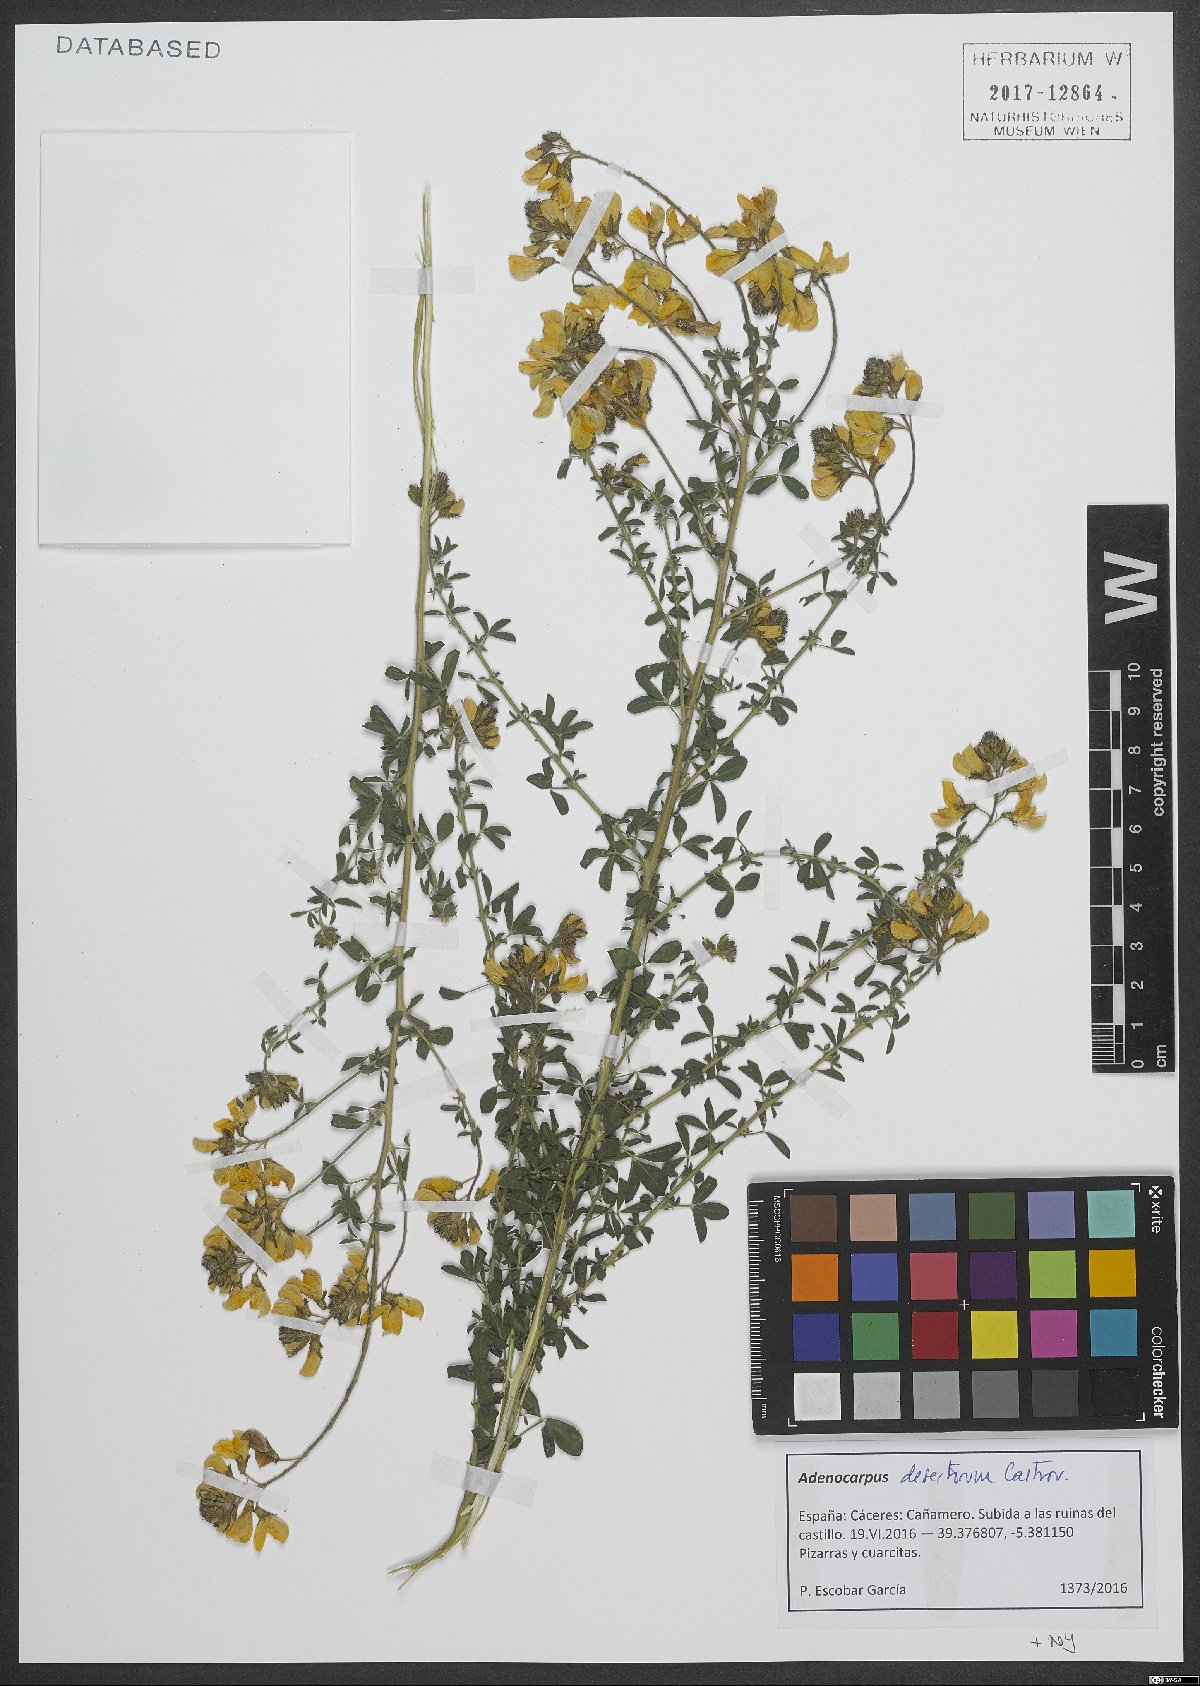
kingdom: Plantae
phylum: Tracheophyta
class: Magnoliopsida
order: Fabales
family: Fabaceae
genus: Adenocarpus
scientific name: Adenocarpus desertorum
